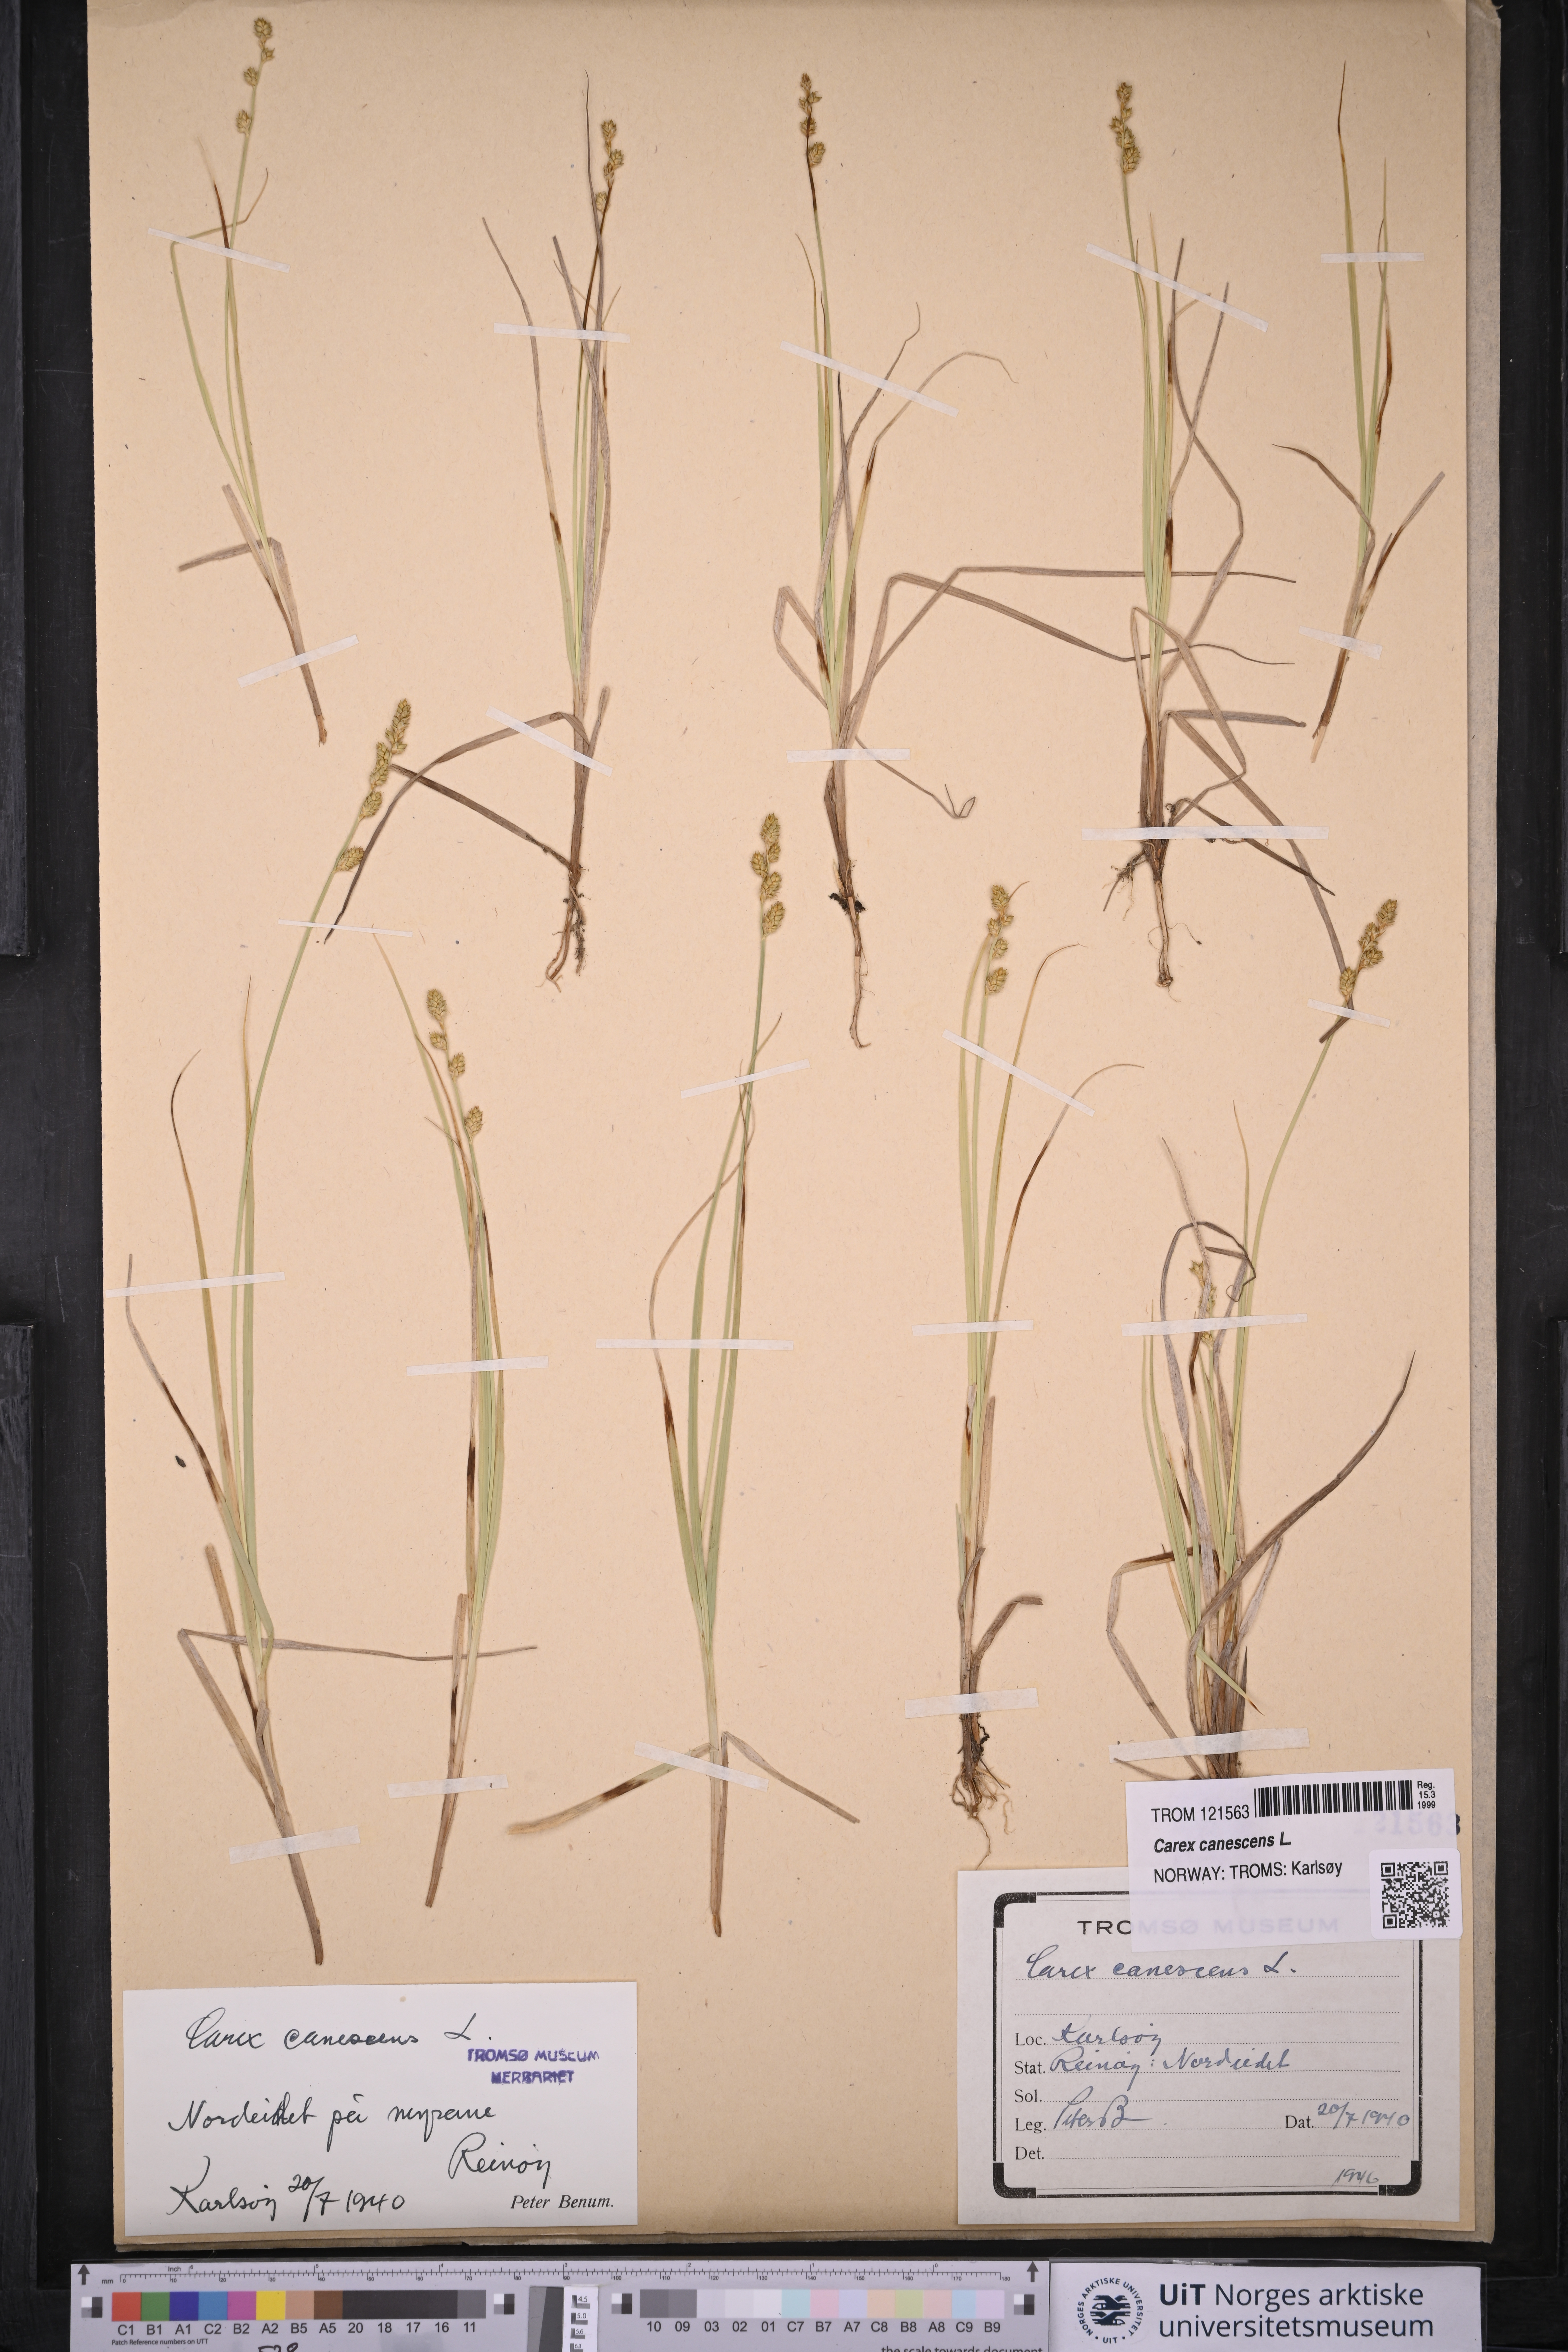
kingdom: Plantae
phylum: Tracheophyta
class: Liliopsida
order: Poales
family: Cyperaceae
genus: Carex
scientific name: Carex canescens
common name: White sedge
